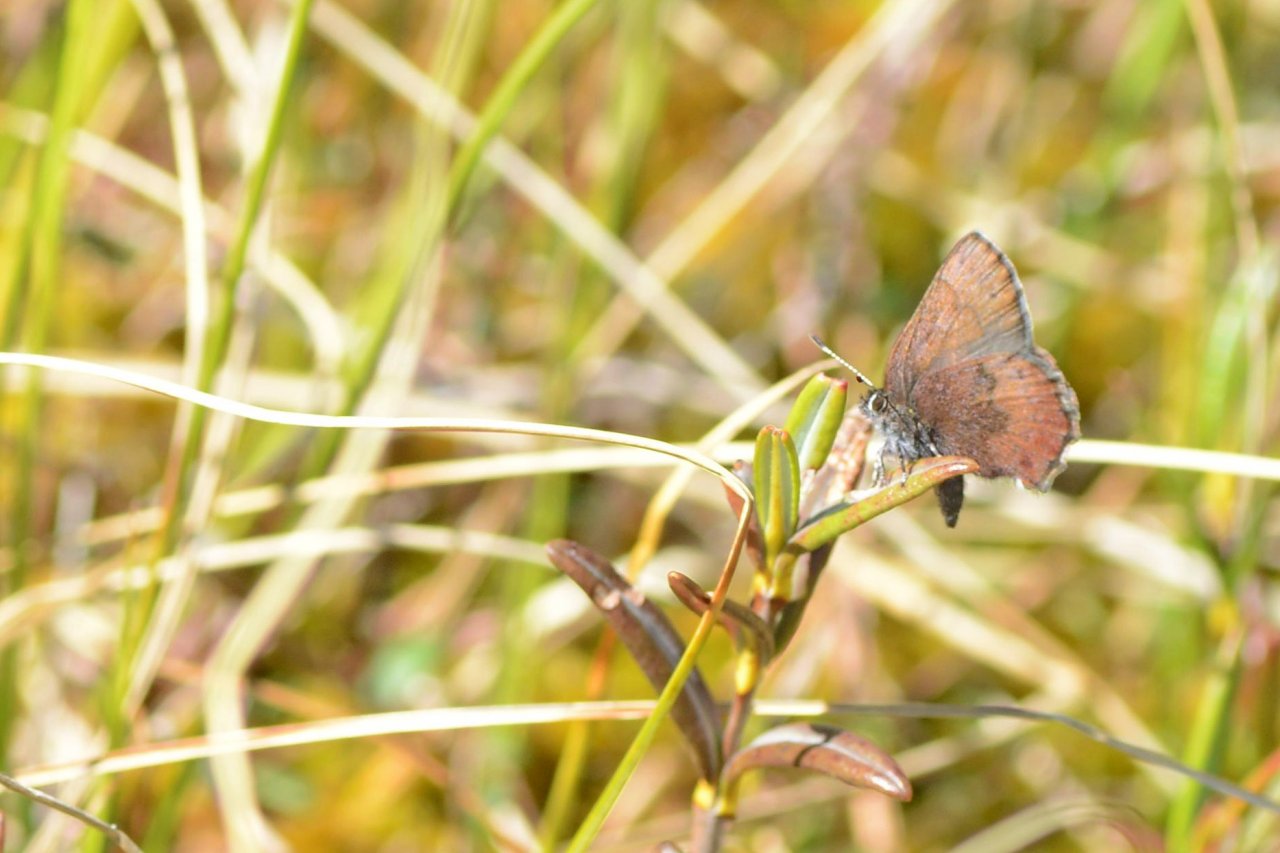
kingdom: Animalia
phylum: Arthropoda
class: Insecta
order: Lepidoptera
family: Lycaenidae
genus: Incisalia
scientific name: Incisalia irioides
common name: Brown Elfin
